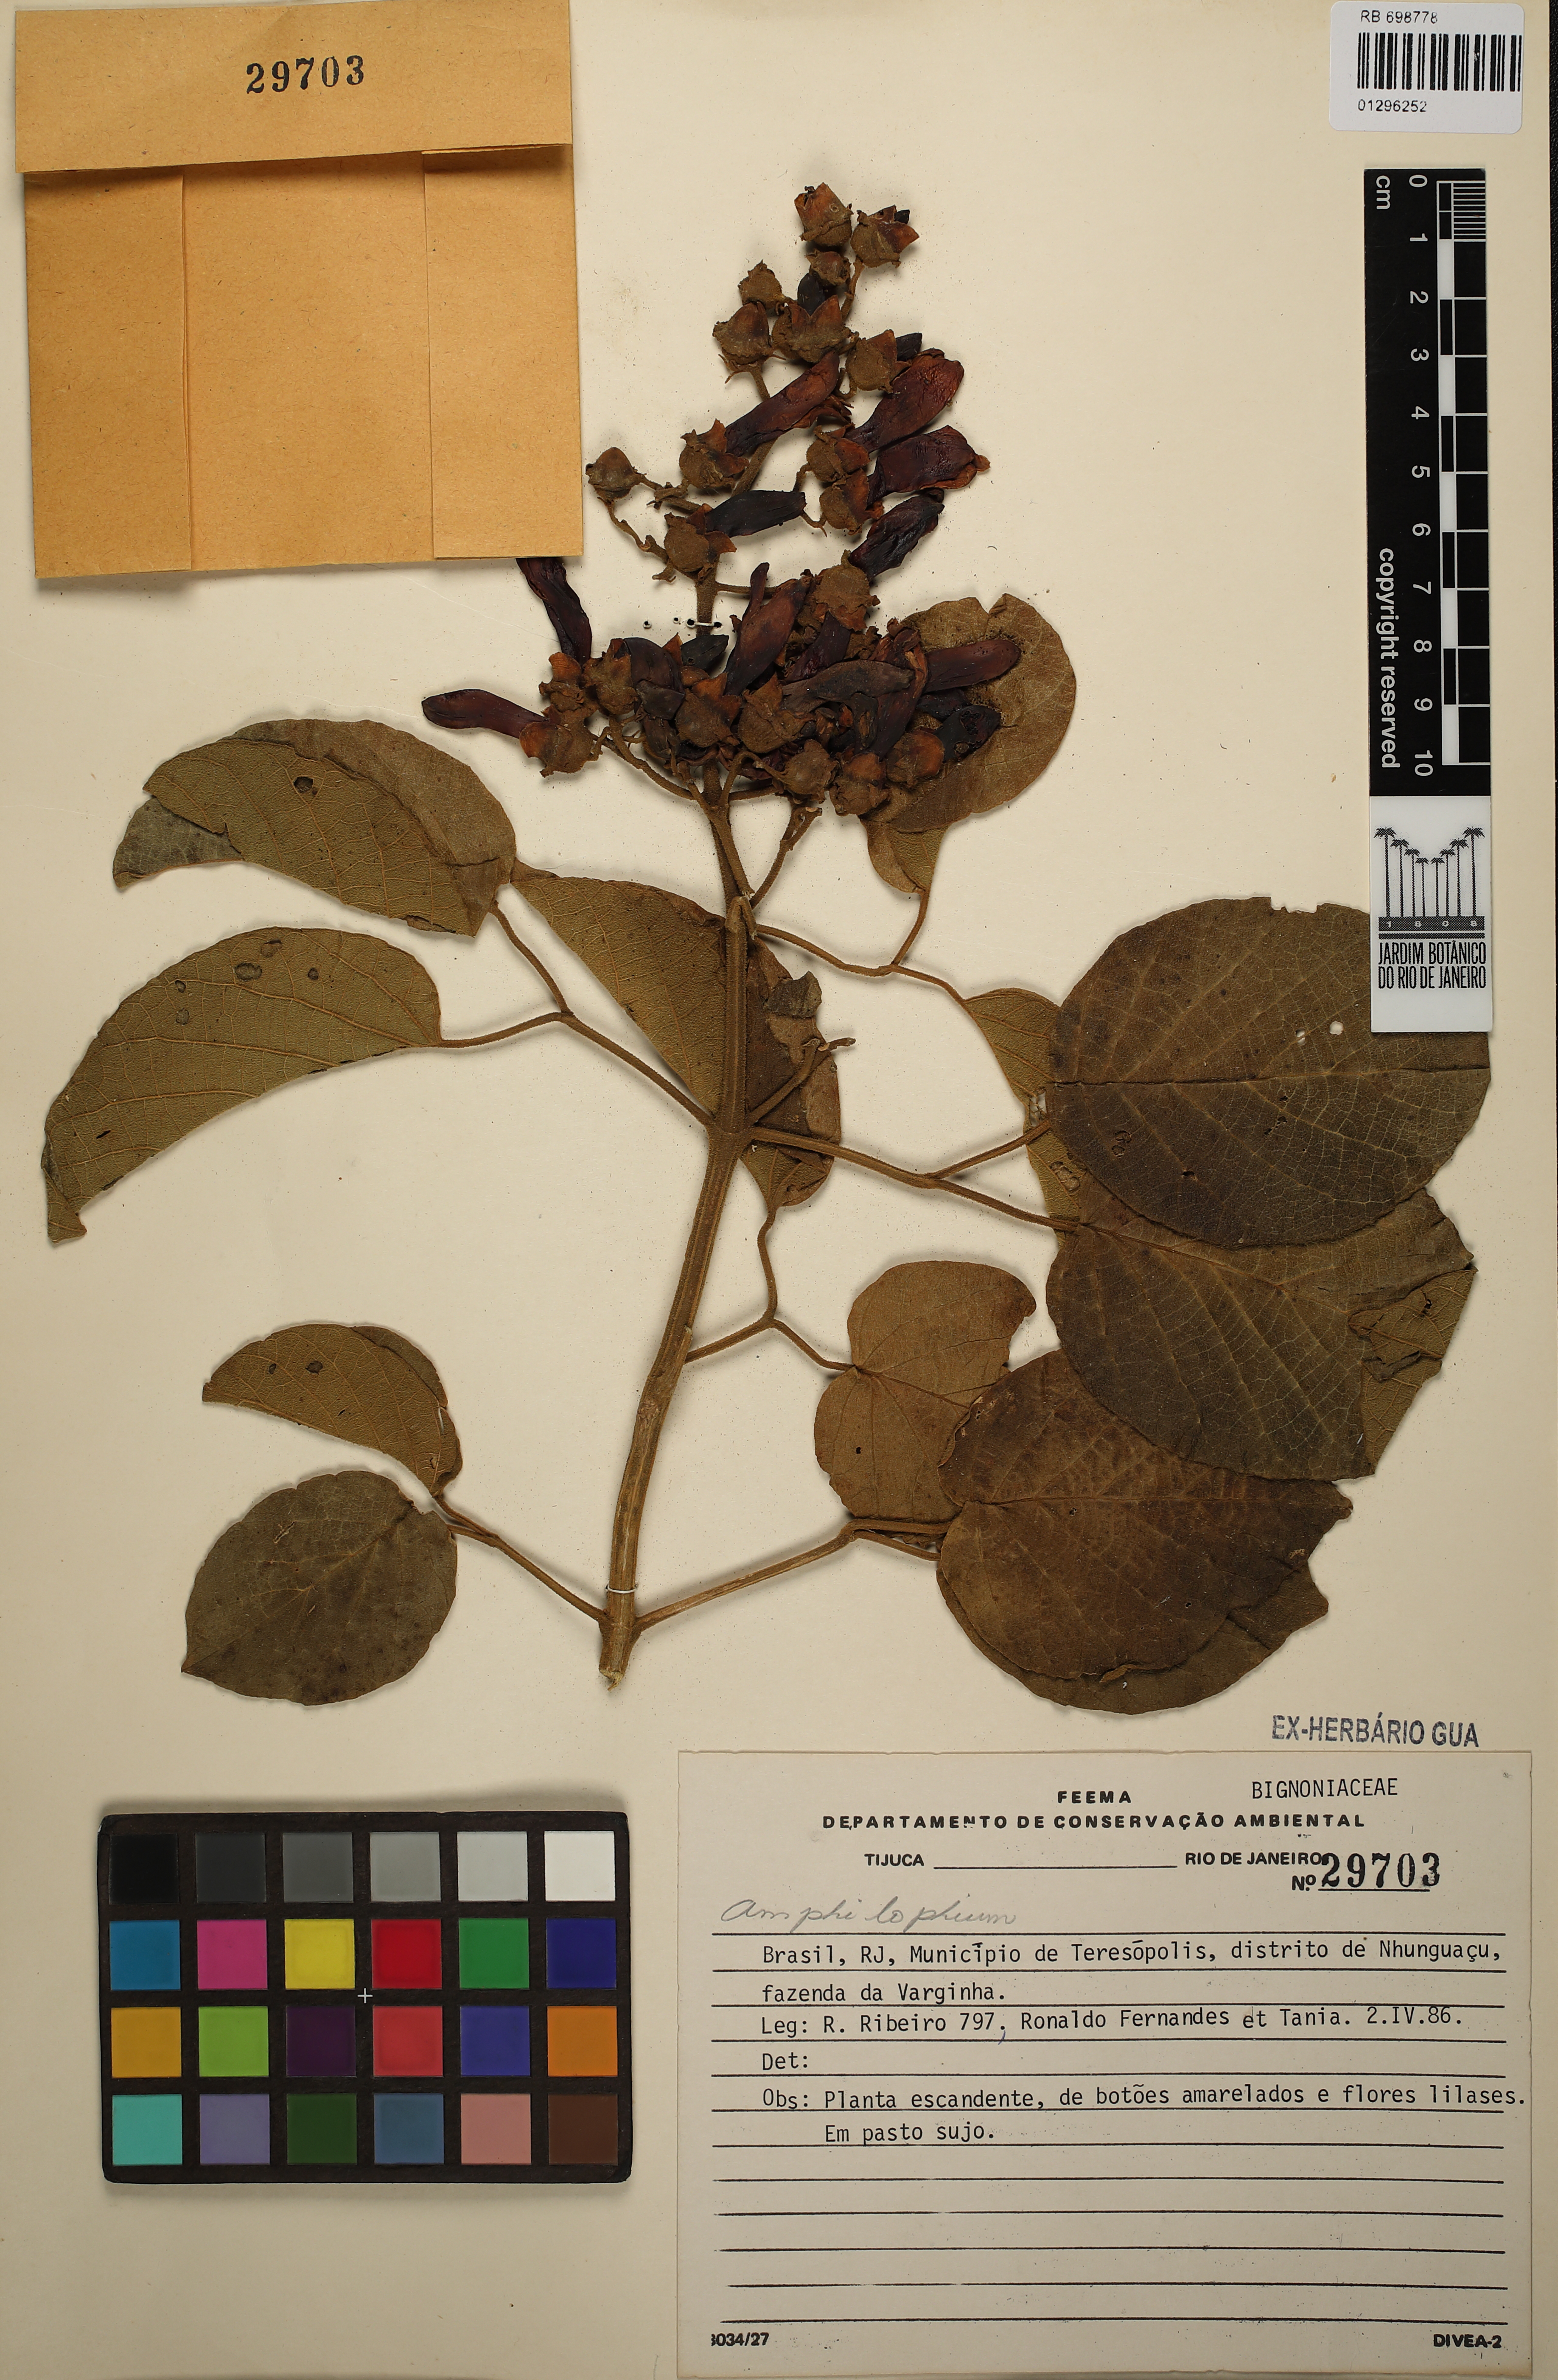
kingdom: Plantae
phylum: Tracheophyta
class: Magnoliopsida
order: Lamiales
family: Bignoniaceae
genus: Amphilophium
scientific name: Amphilophium
